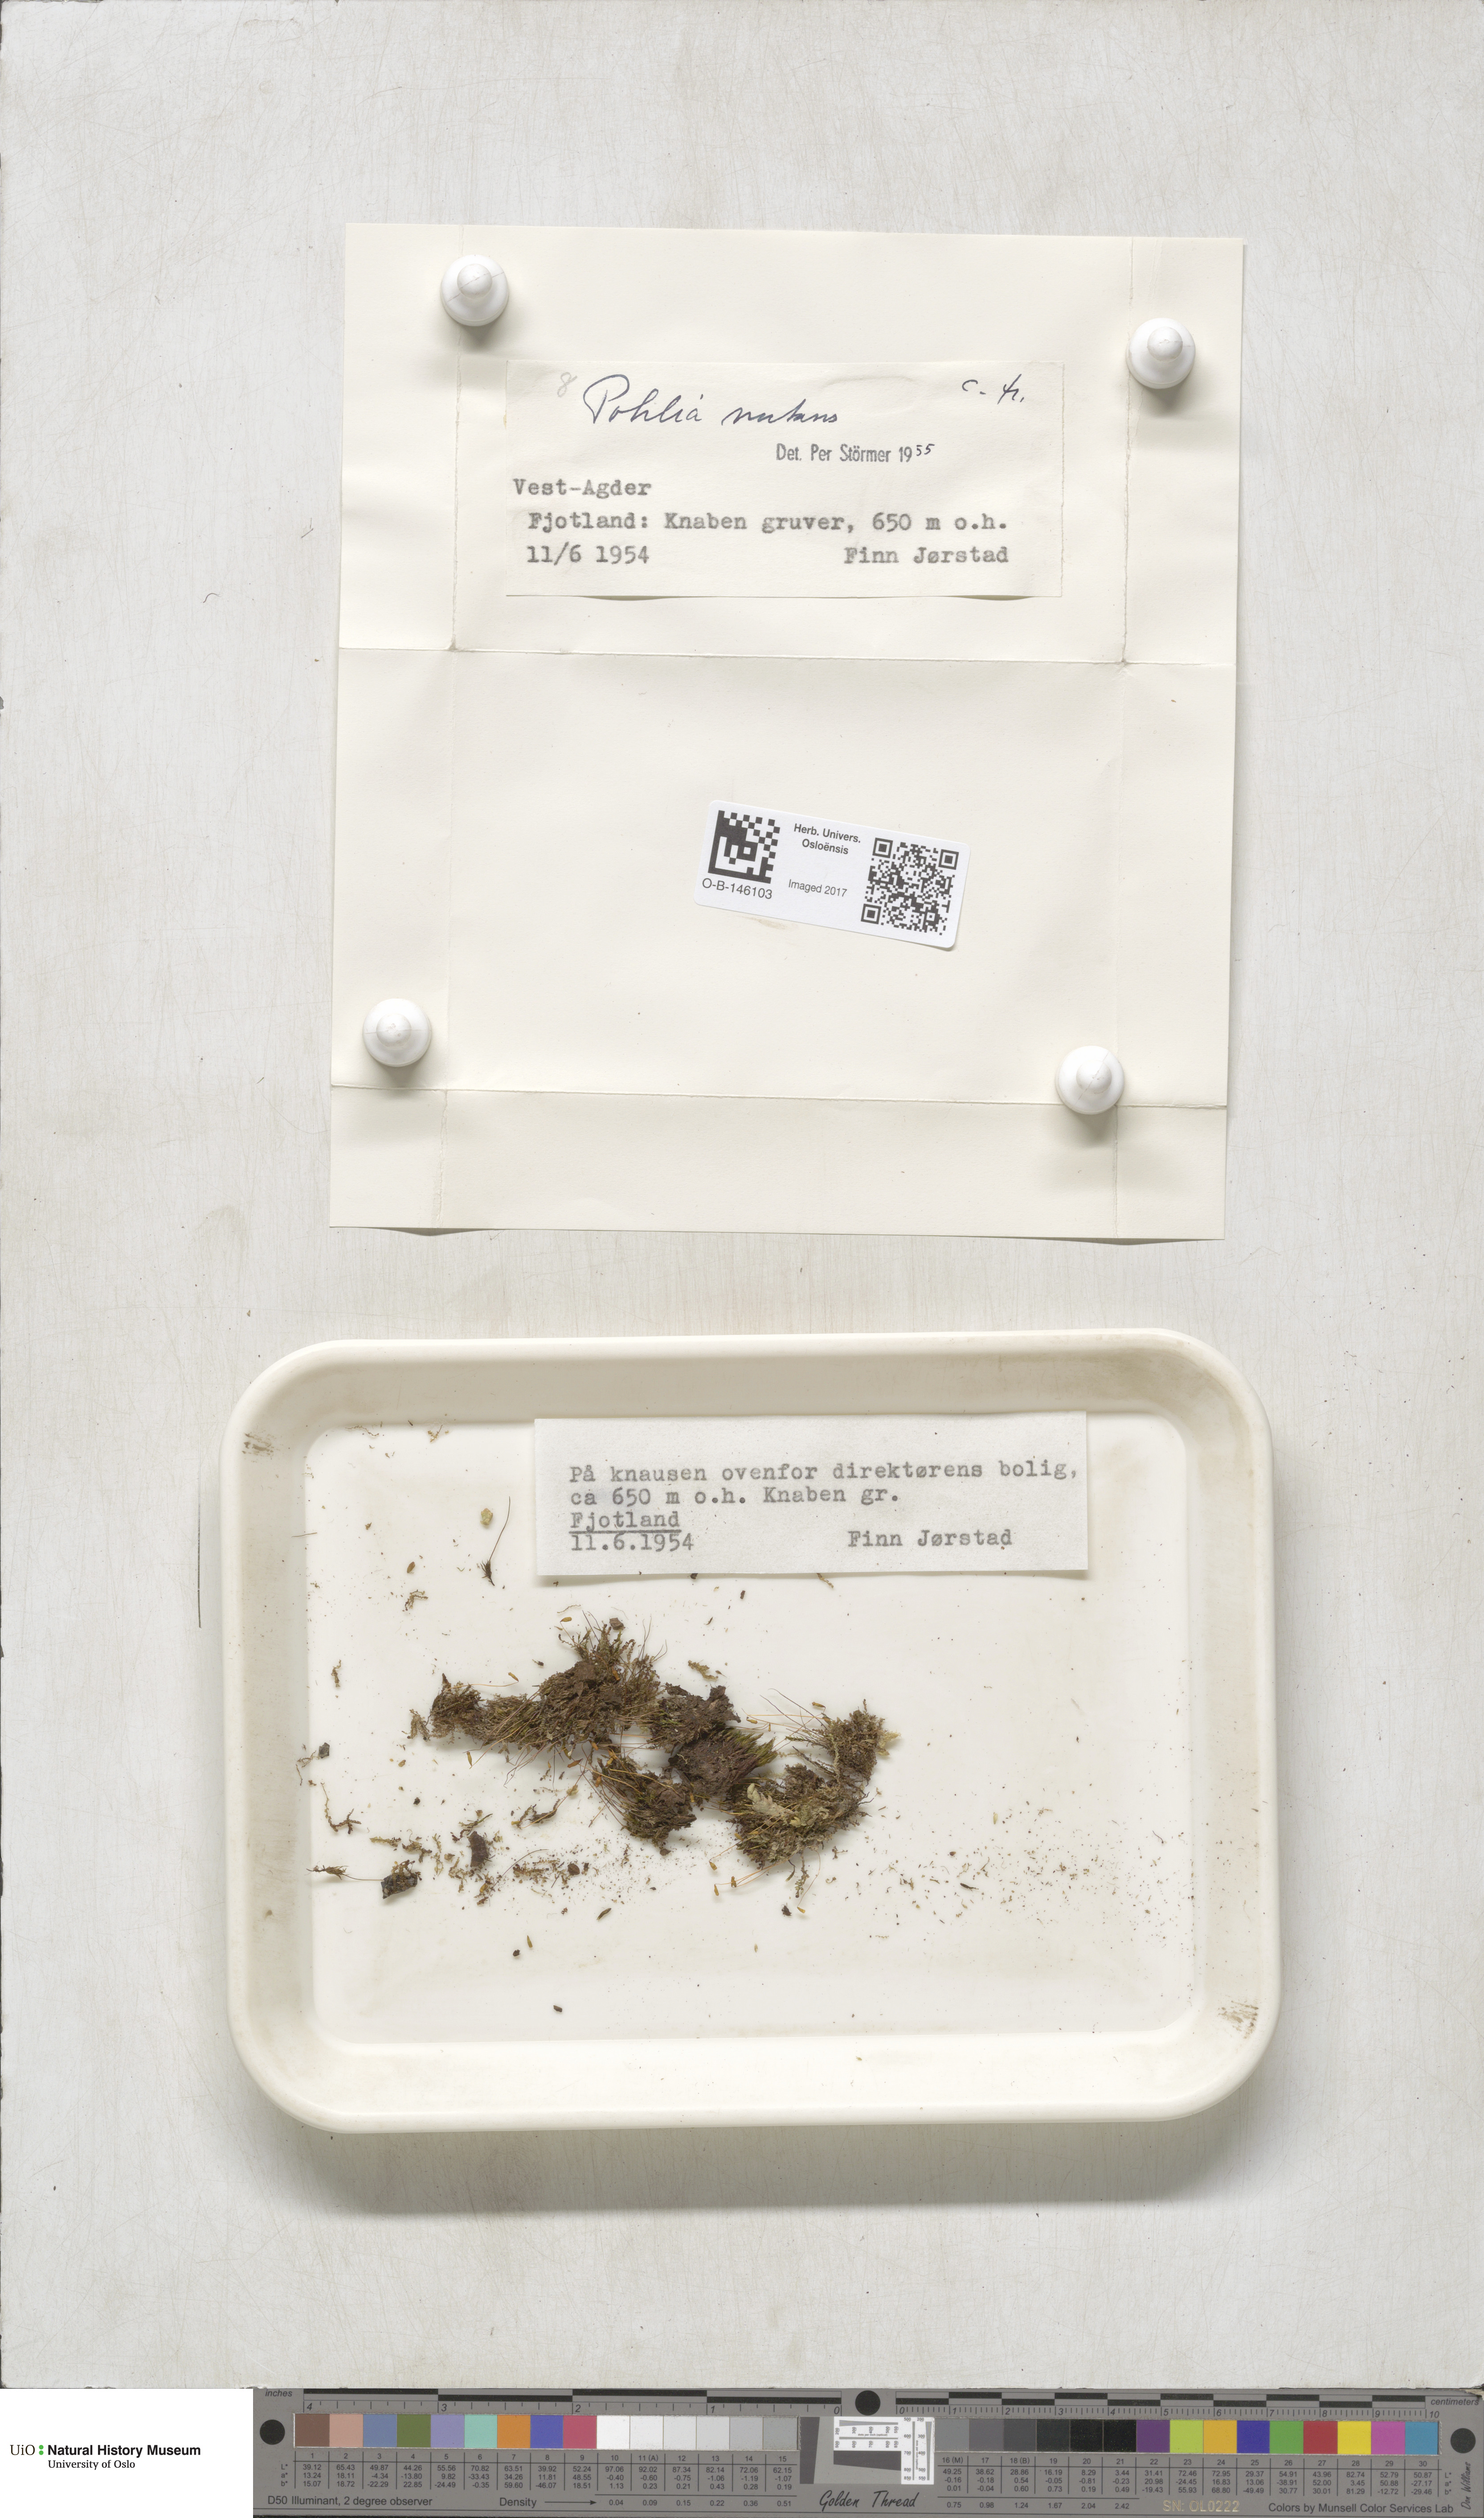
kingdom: Plantae
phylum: Bryophyta
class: Bryopsida
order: Bryales
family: Mniaceae
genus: Pohlia
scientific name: Pohlia nutans
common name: Nodding thread-moss
